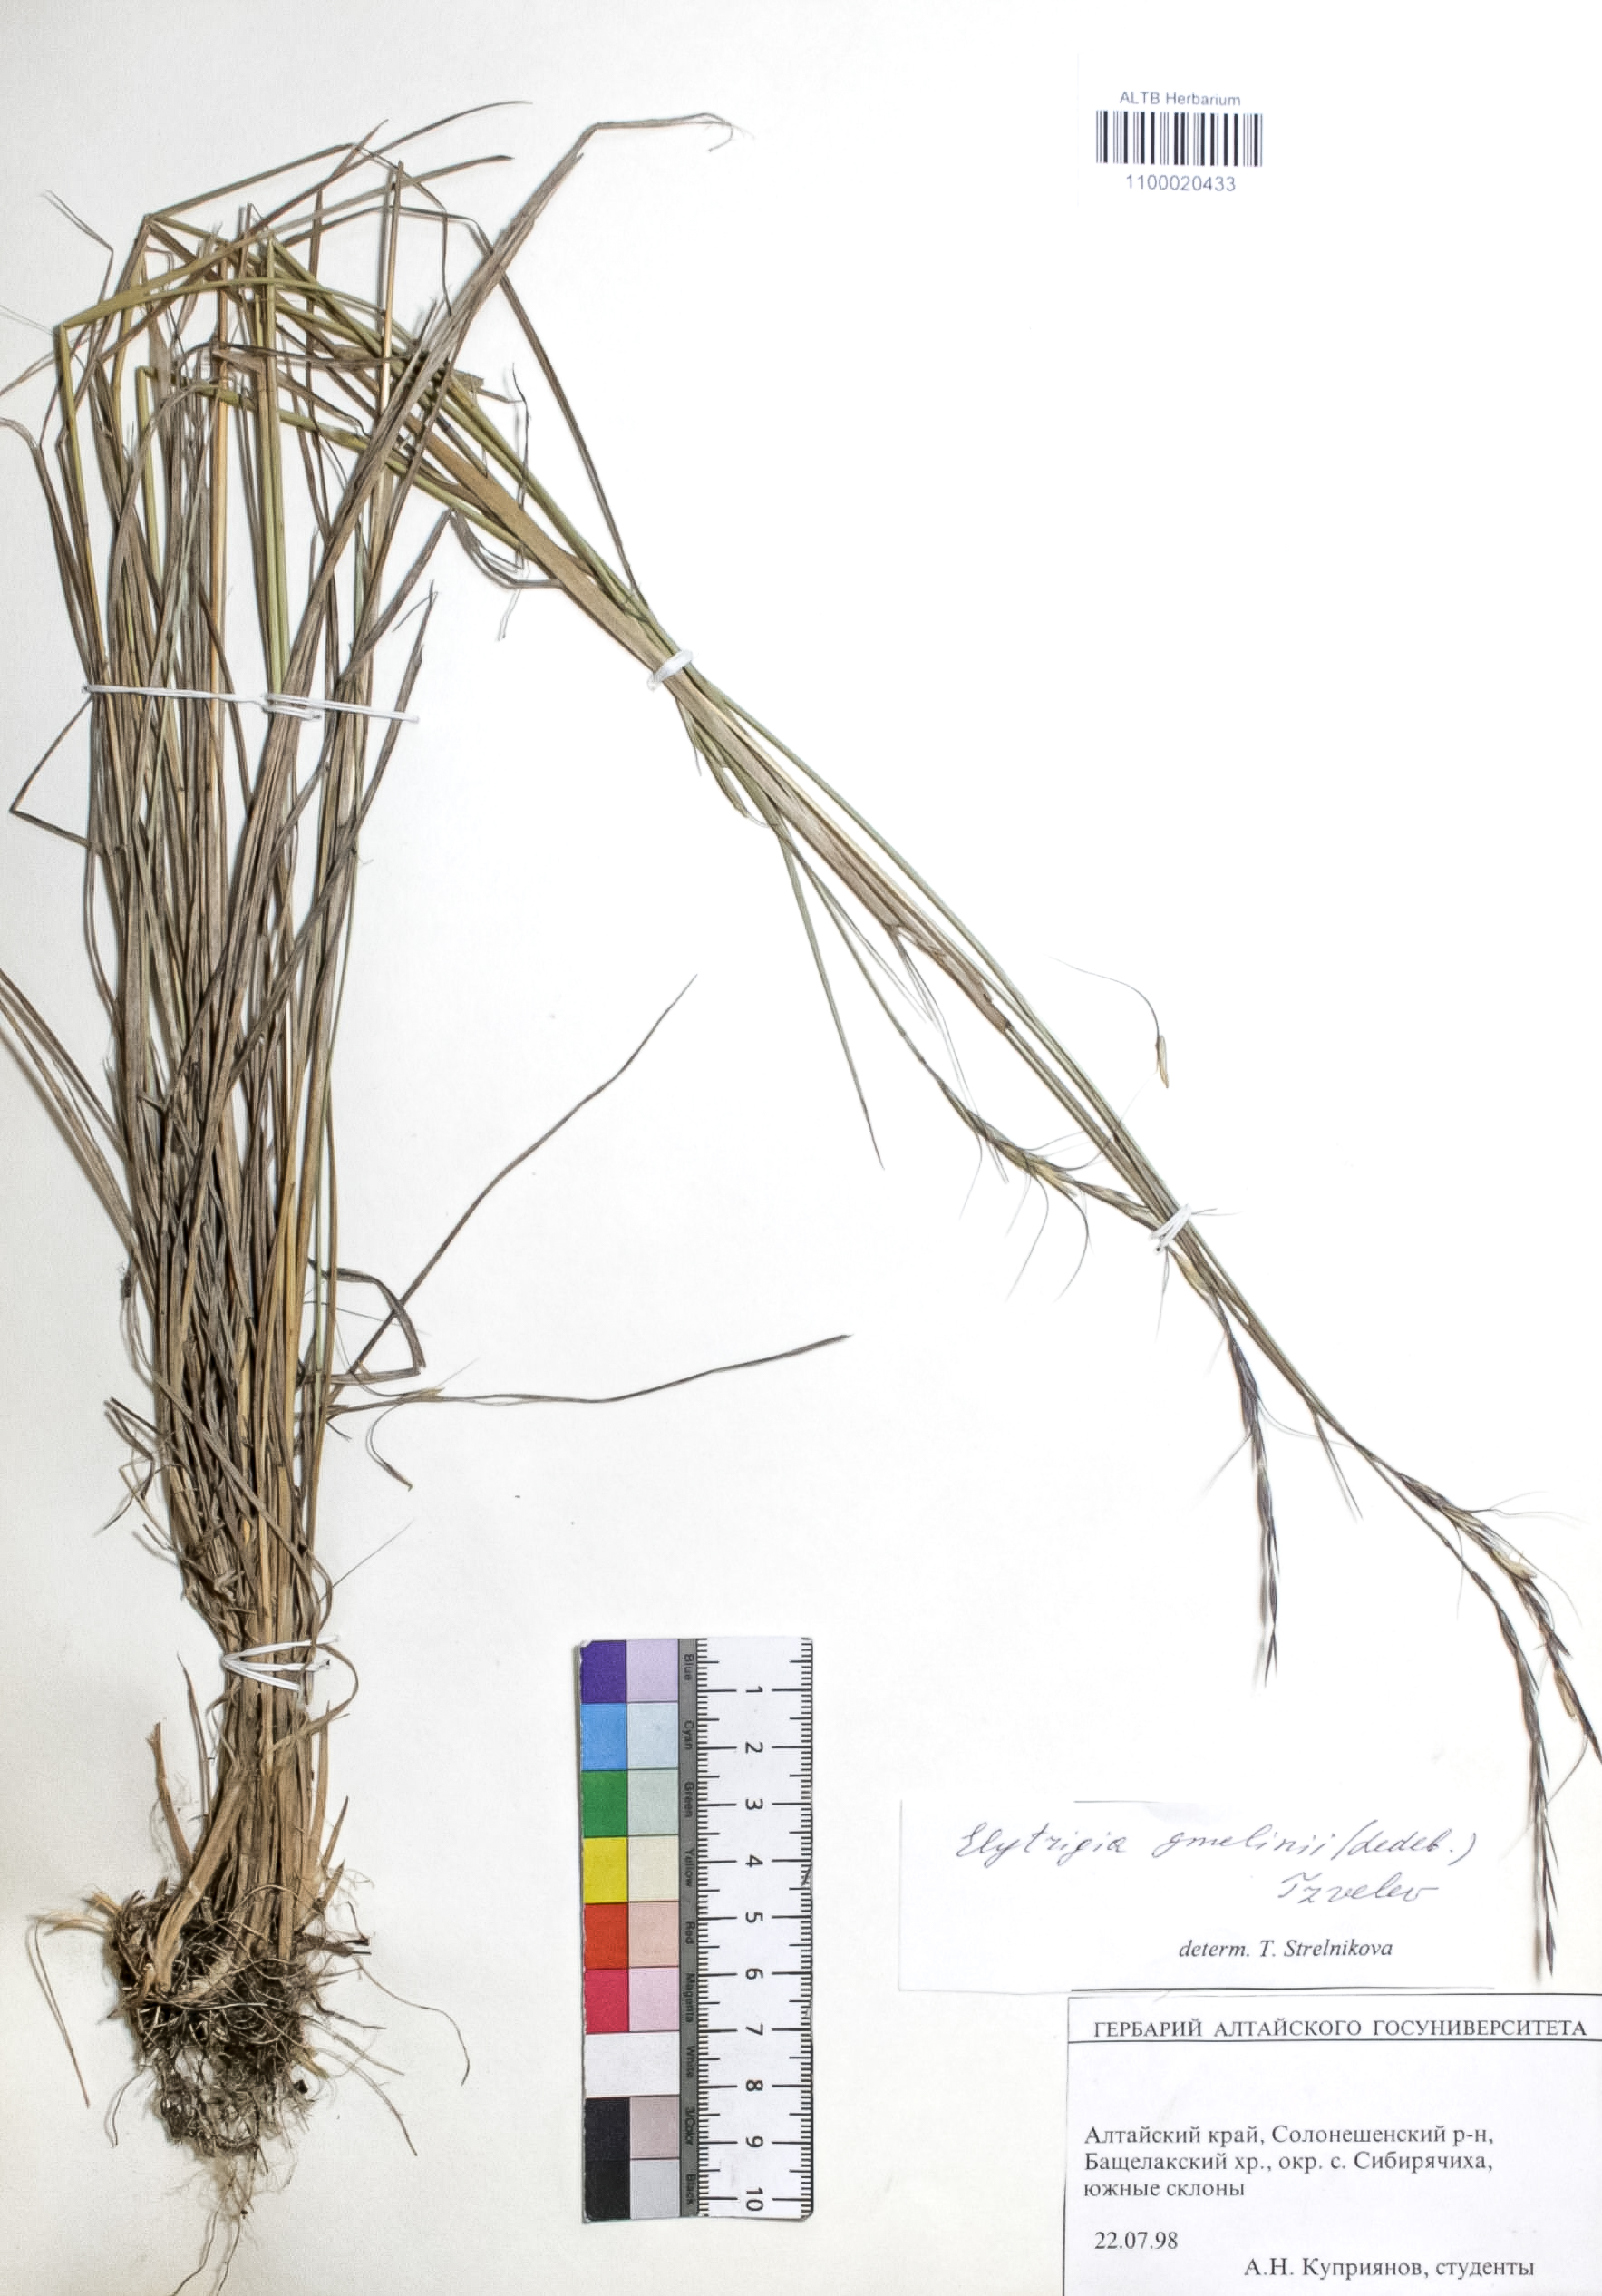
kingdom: Plantae
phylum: Tracheophyta
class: Liliopsida
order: Poales
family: Poaceae
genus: Pseudoroegneria
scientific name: Pseudoroegneria reflexiaristata
